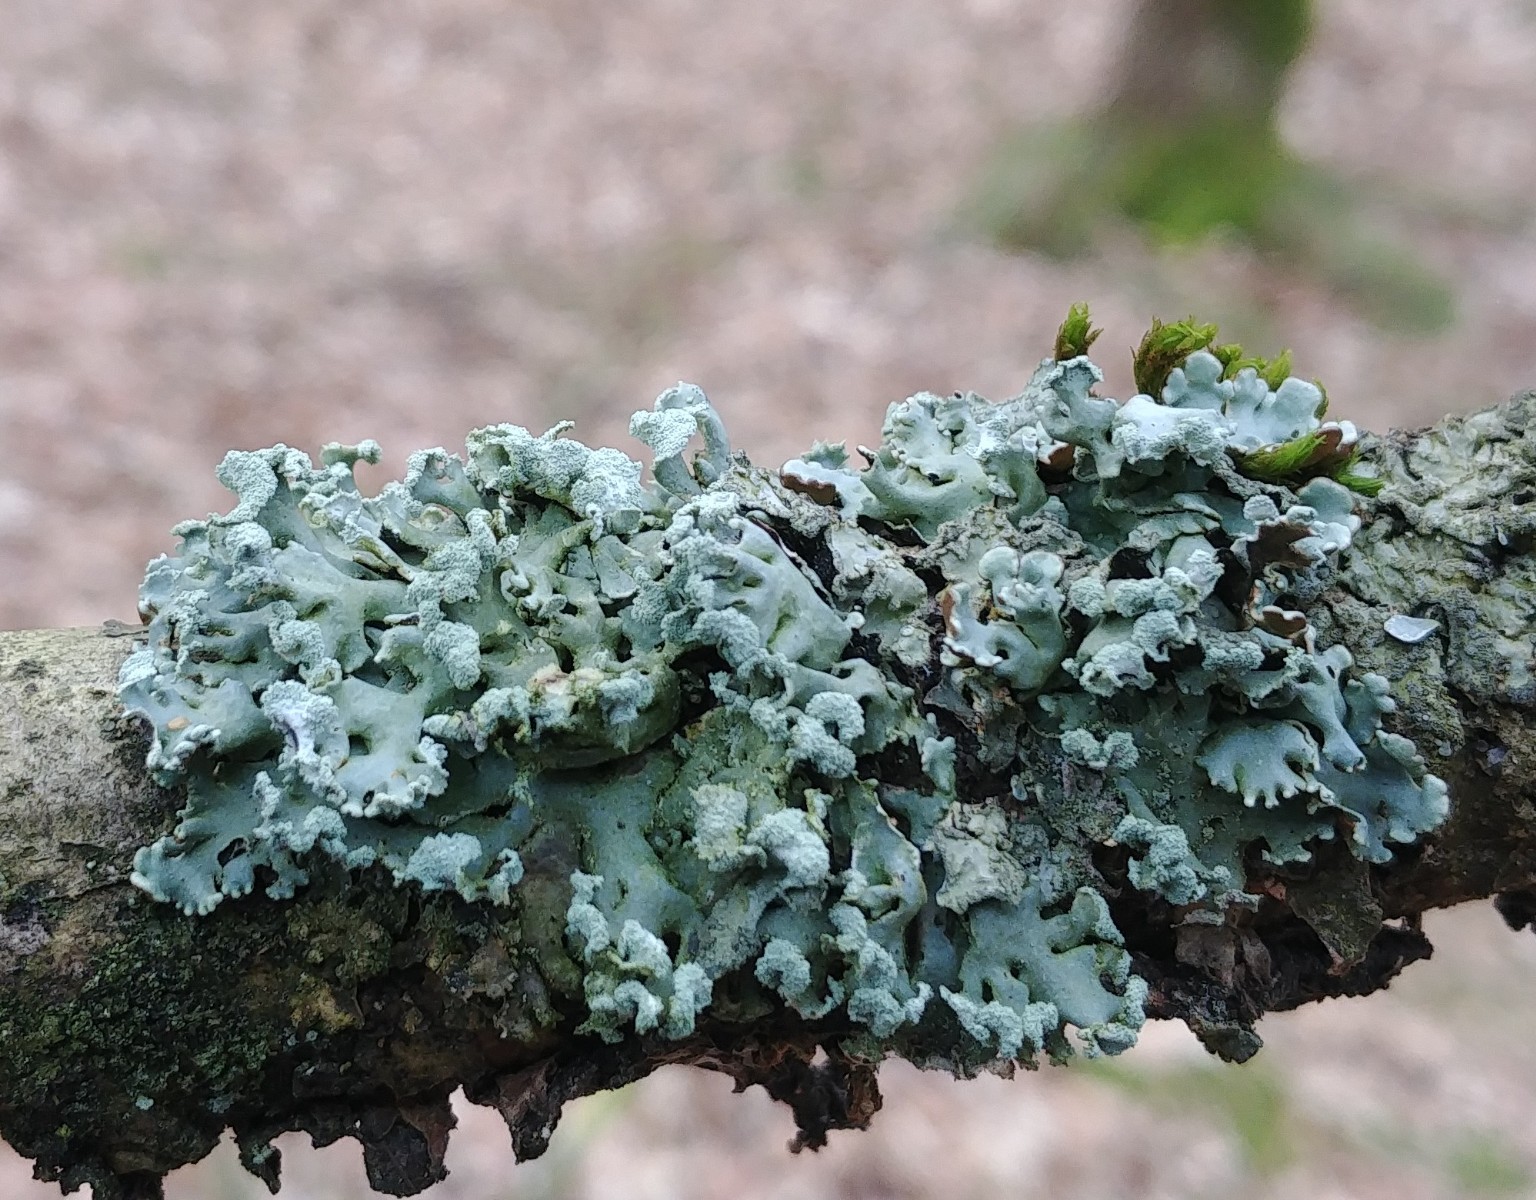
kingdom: Fungi
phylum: Ascomycota
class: Lecanoromycetes
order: Lecanorales
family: Parmeliaceae
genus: Hypogymnia
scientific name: Hypogymnia physodes
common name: almindelig kvistlav
